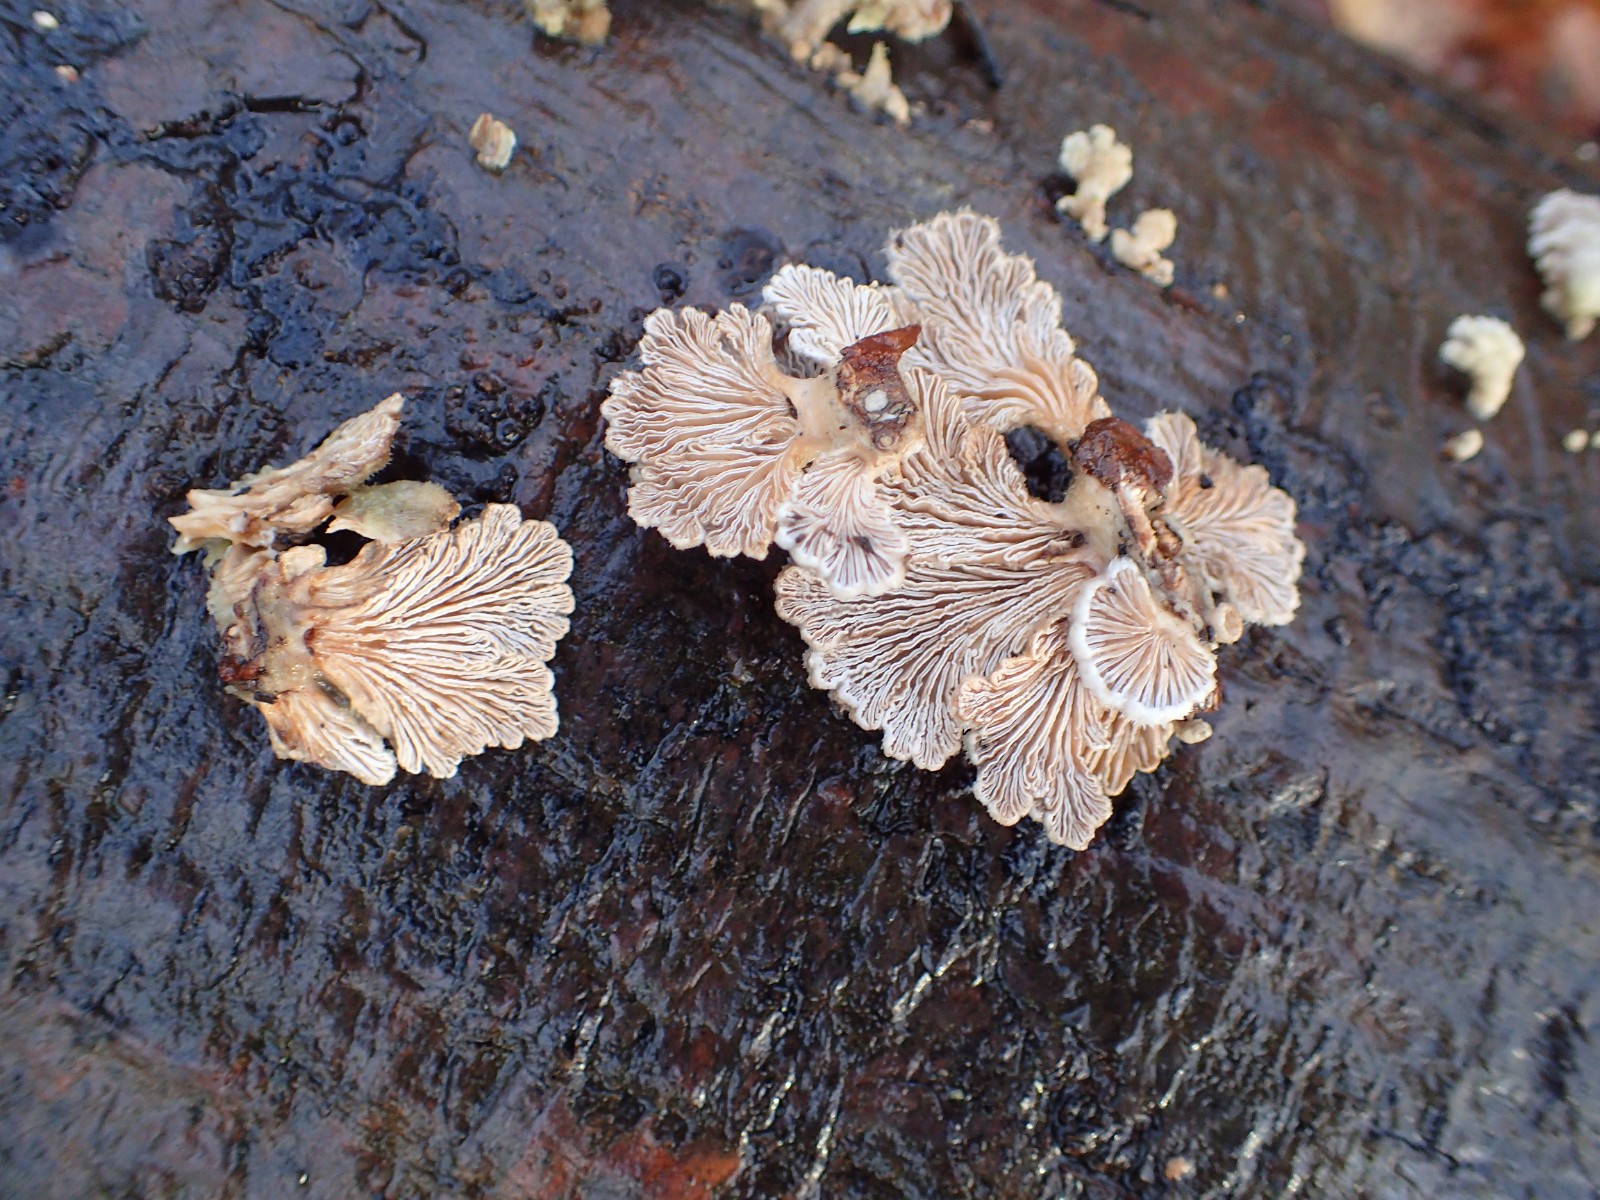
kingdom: Fungi
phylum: Basidiomycota
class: Agaricomycetes
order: Agaricales
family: Schizophyllaceae
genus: Schizophyllum
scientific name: Schizophyllum commune
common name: kløvblad
